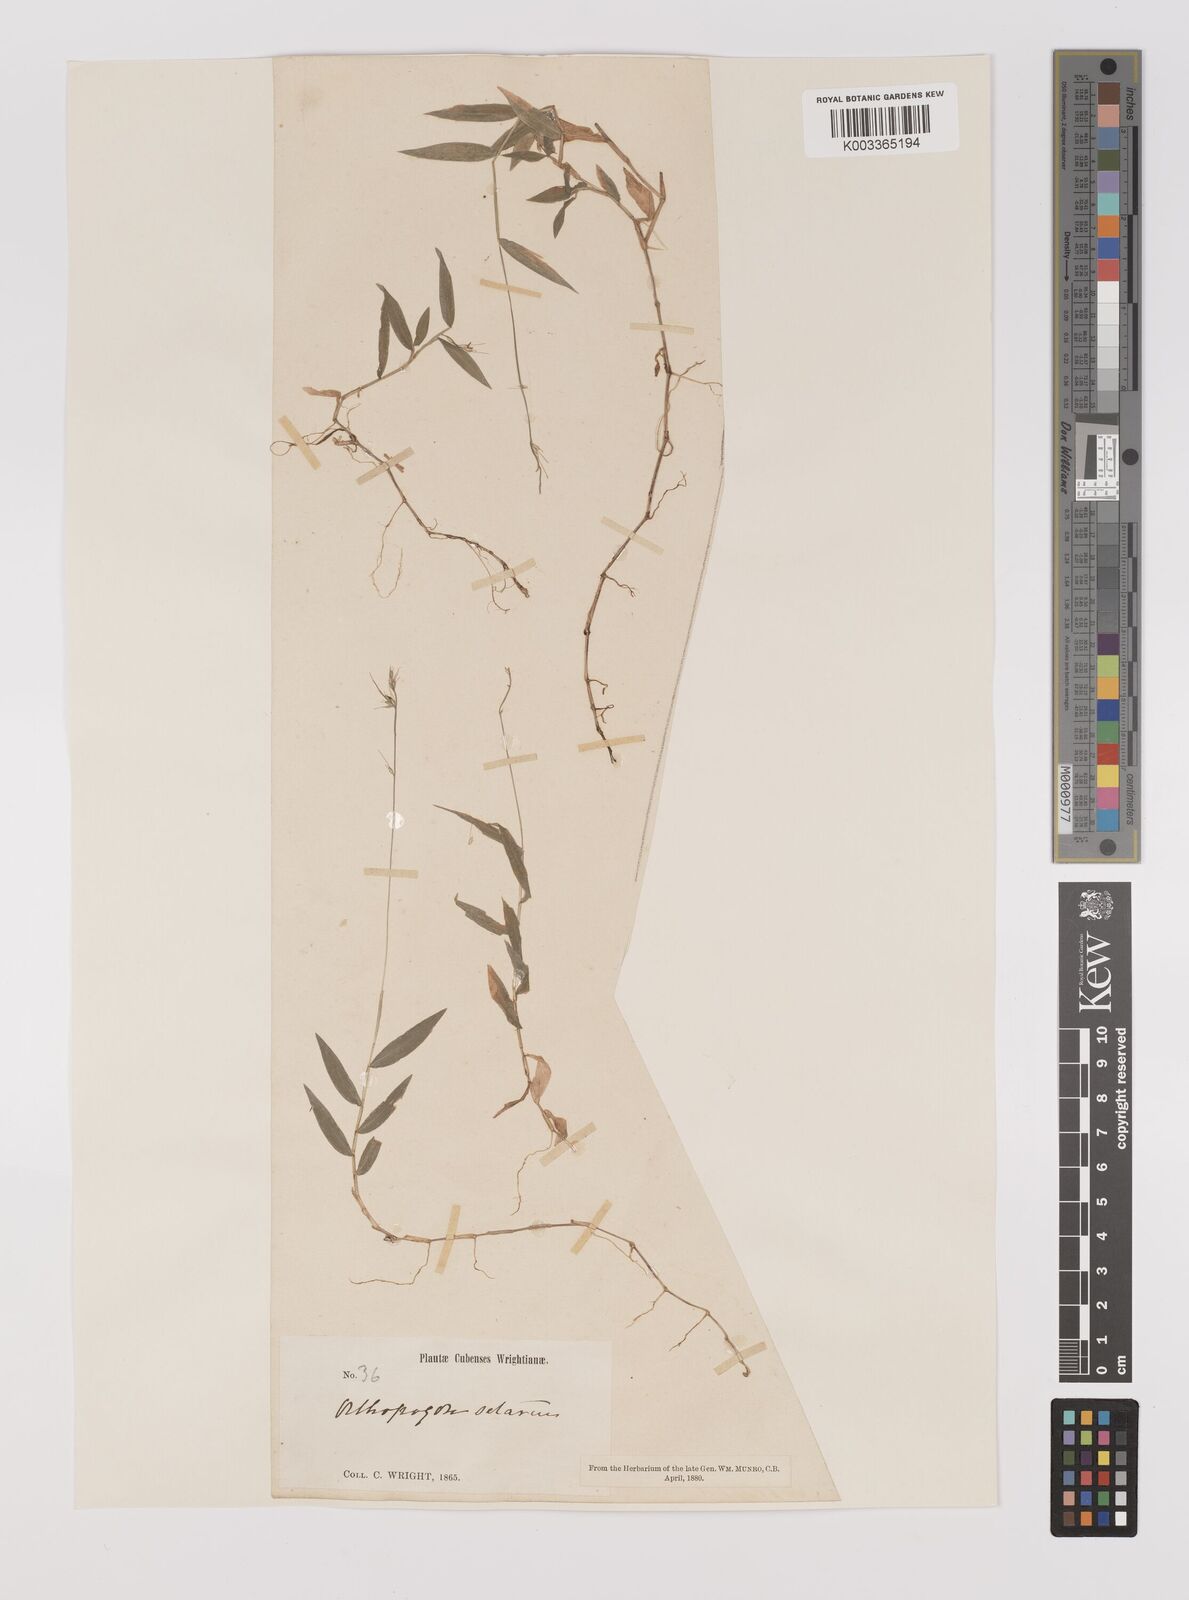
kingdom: Plantae
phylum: Tracheophyta
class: Liliopsida
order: Poales
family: Poaceae
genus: Oplismenus
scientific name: Oplismenus hirtellus
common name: Basketgrass
